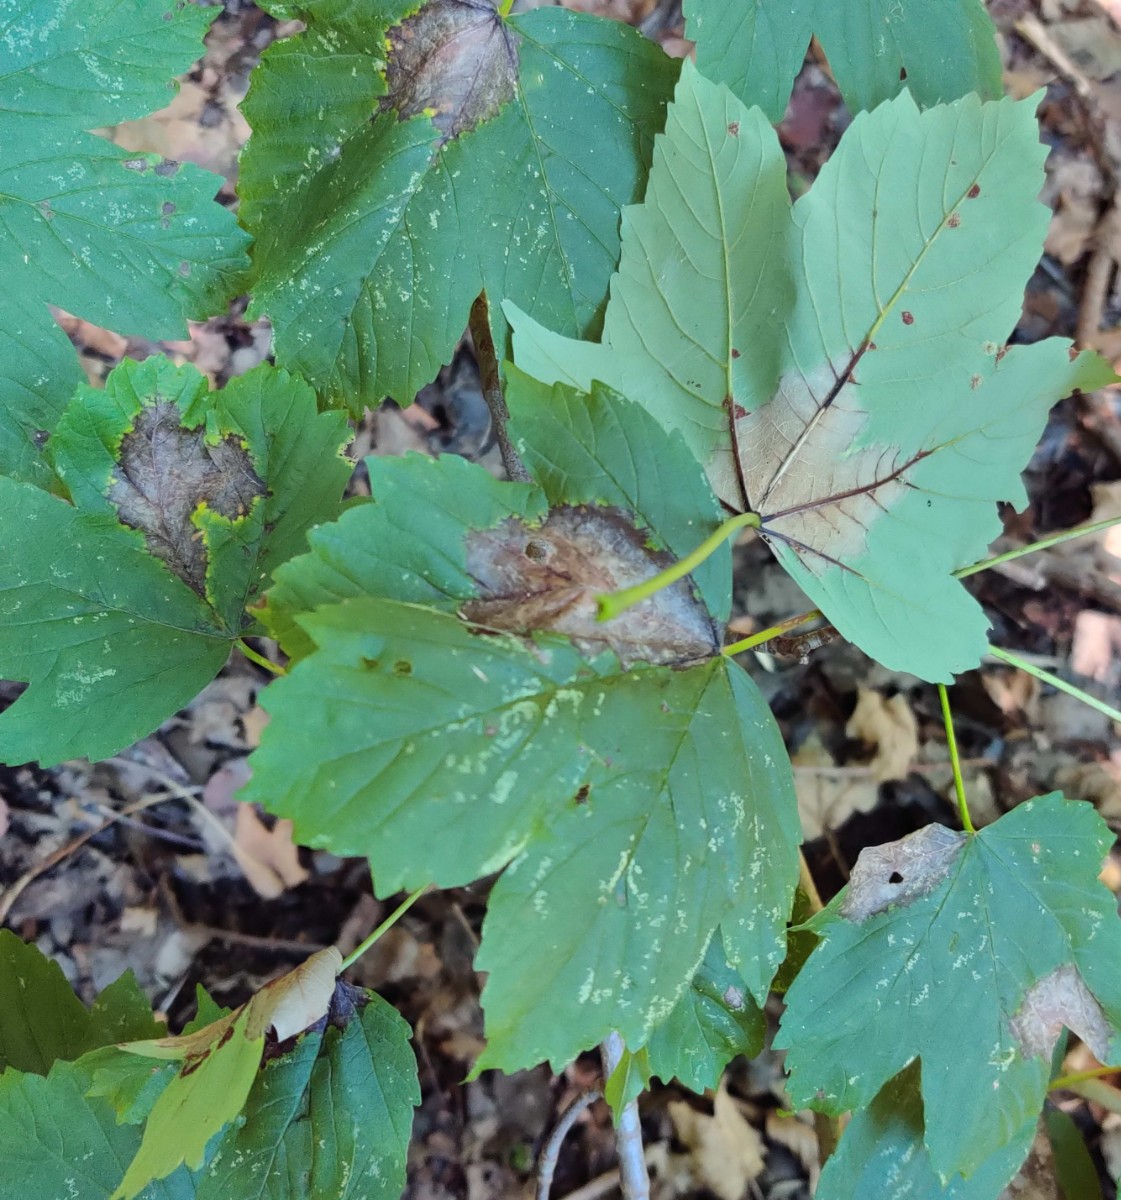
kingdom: Fungi
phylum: Ascomycota
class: Sordariomycetes
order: Diaporthales
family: Gnomoniaceae
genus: Pleuroceras
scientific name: Pleuroceras pseudoplatani
